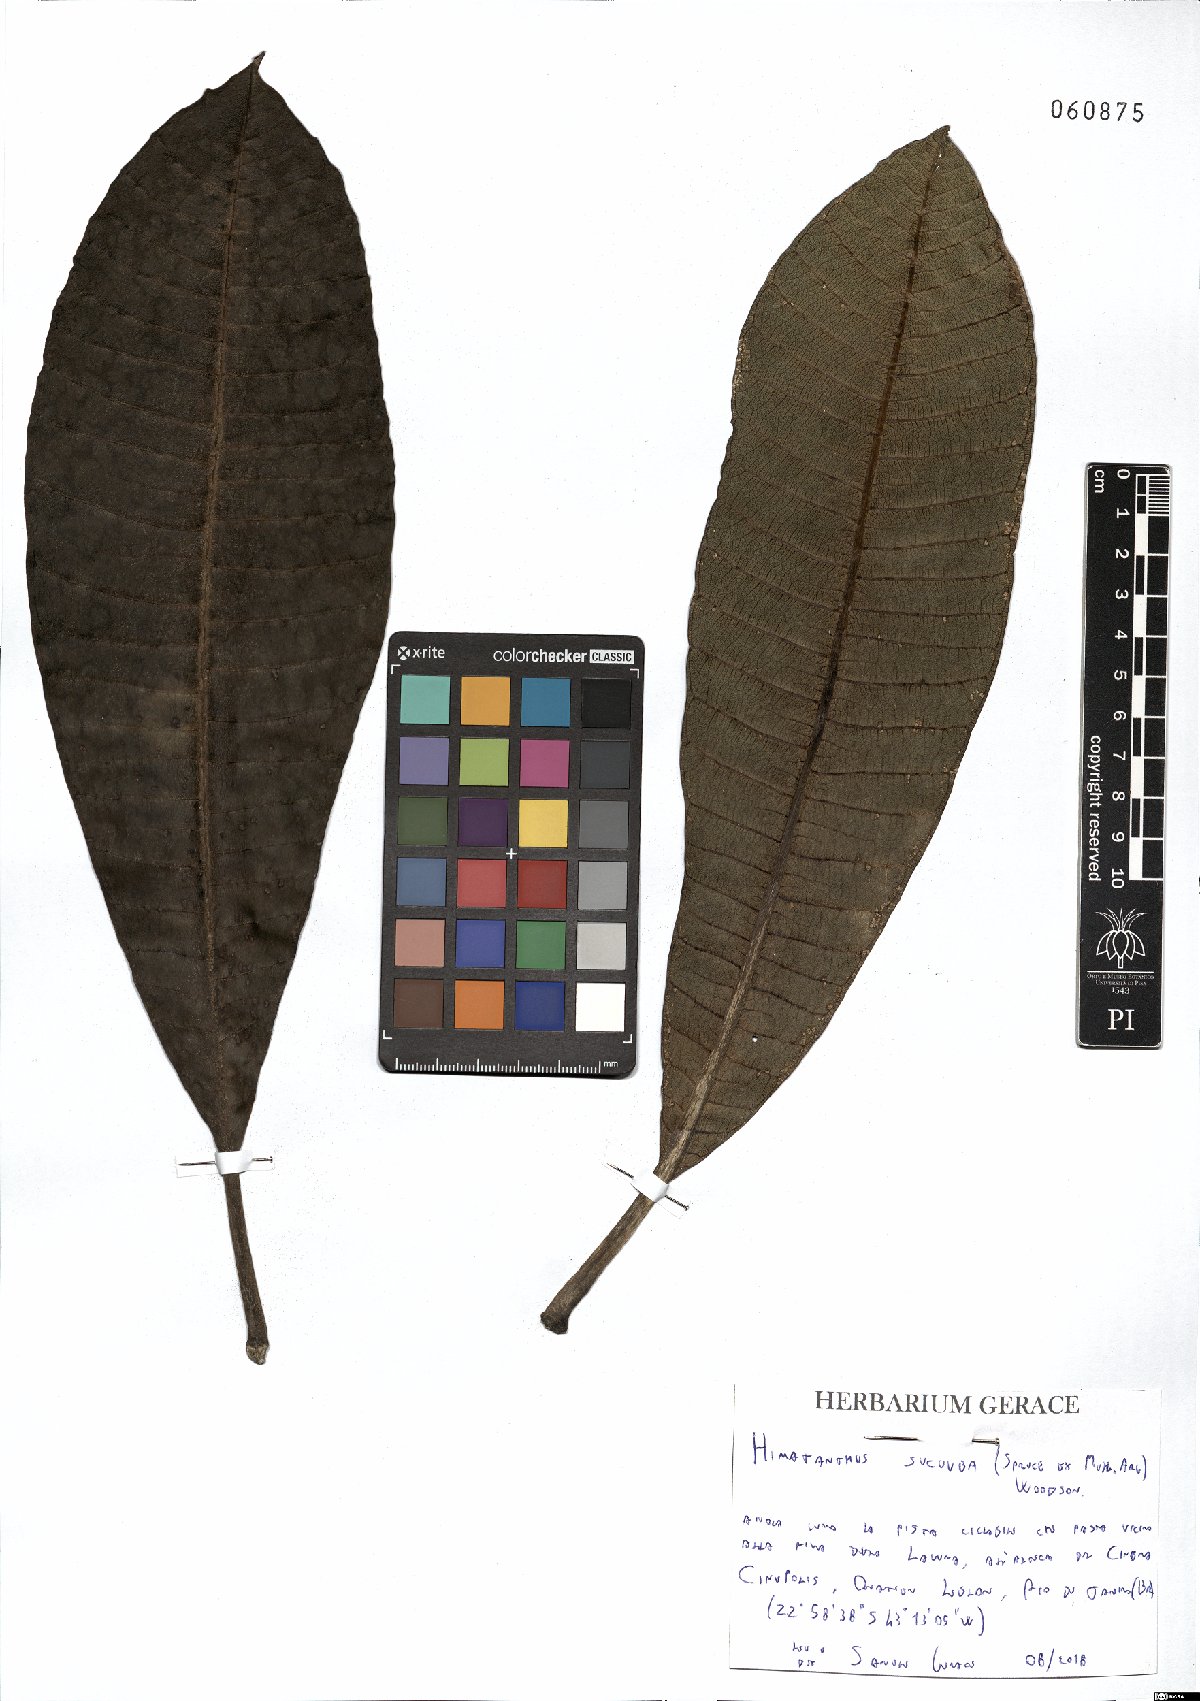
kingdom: Plantae
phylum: Tracheophyta
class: Magnoliopsida
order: Gentianales
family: Apocynaceae
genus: Himatanthus
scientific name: Himatanthus articulatus
